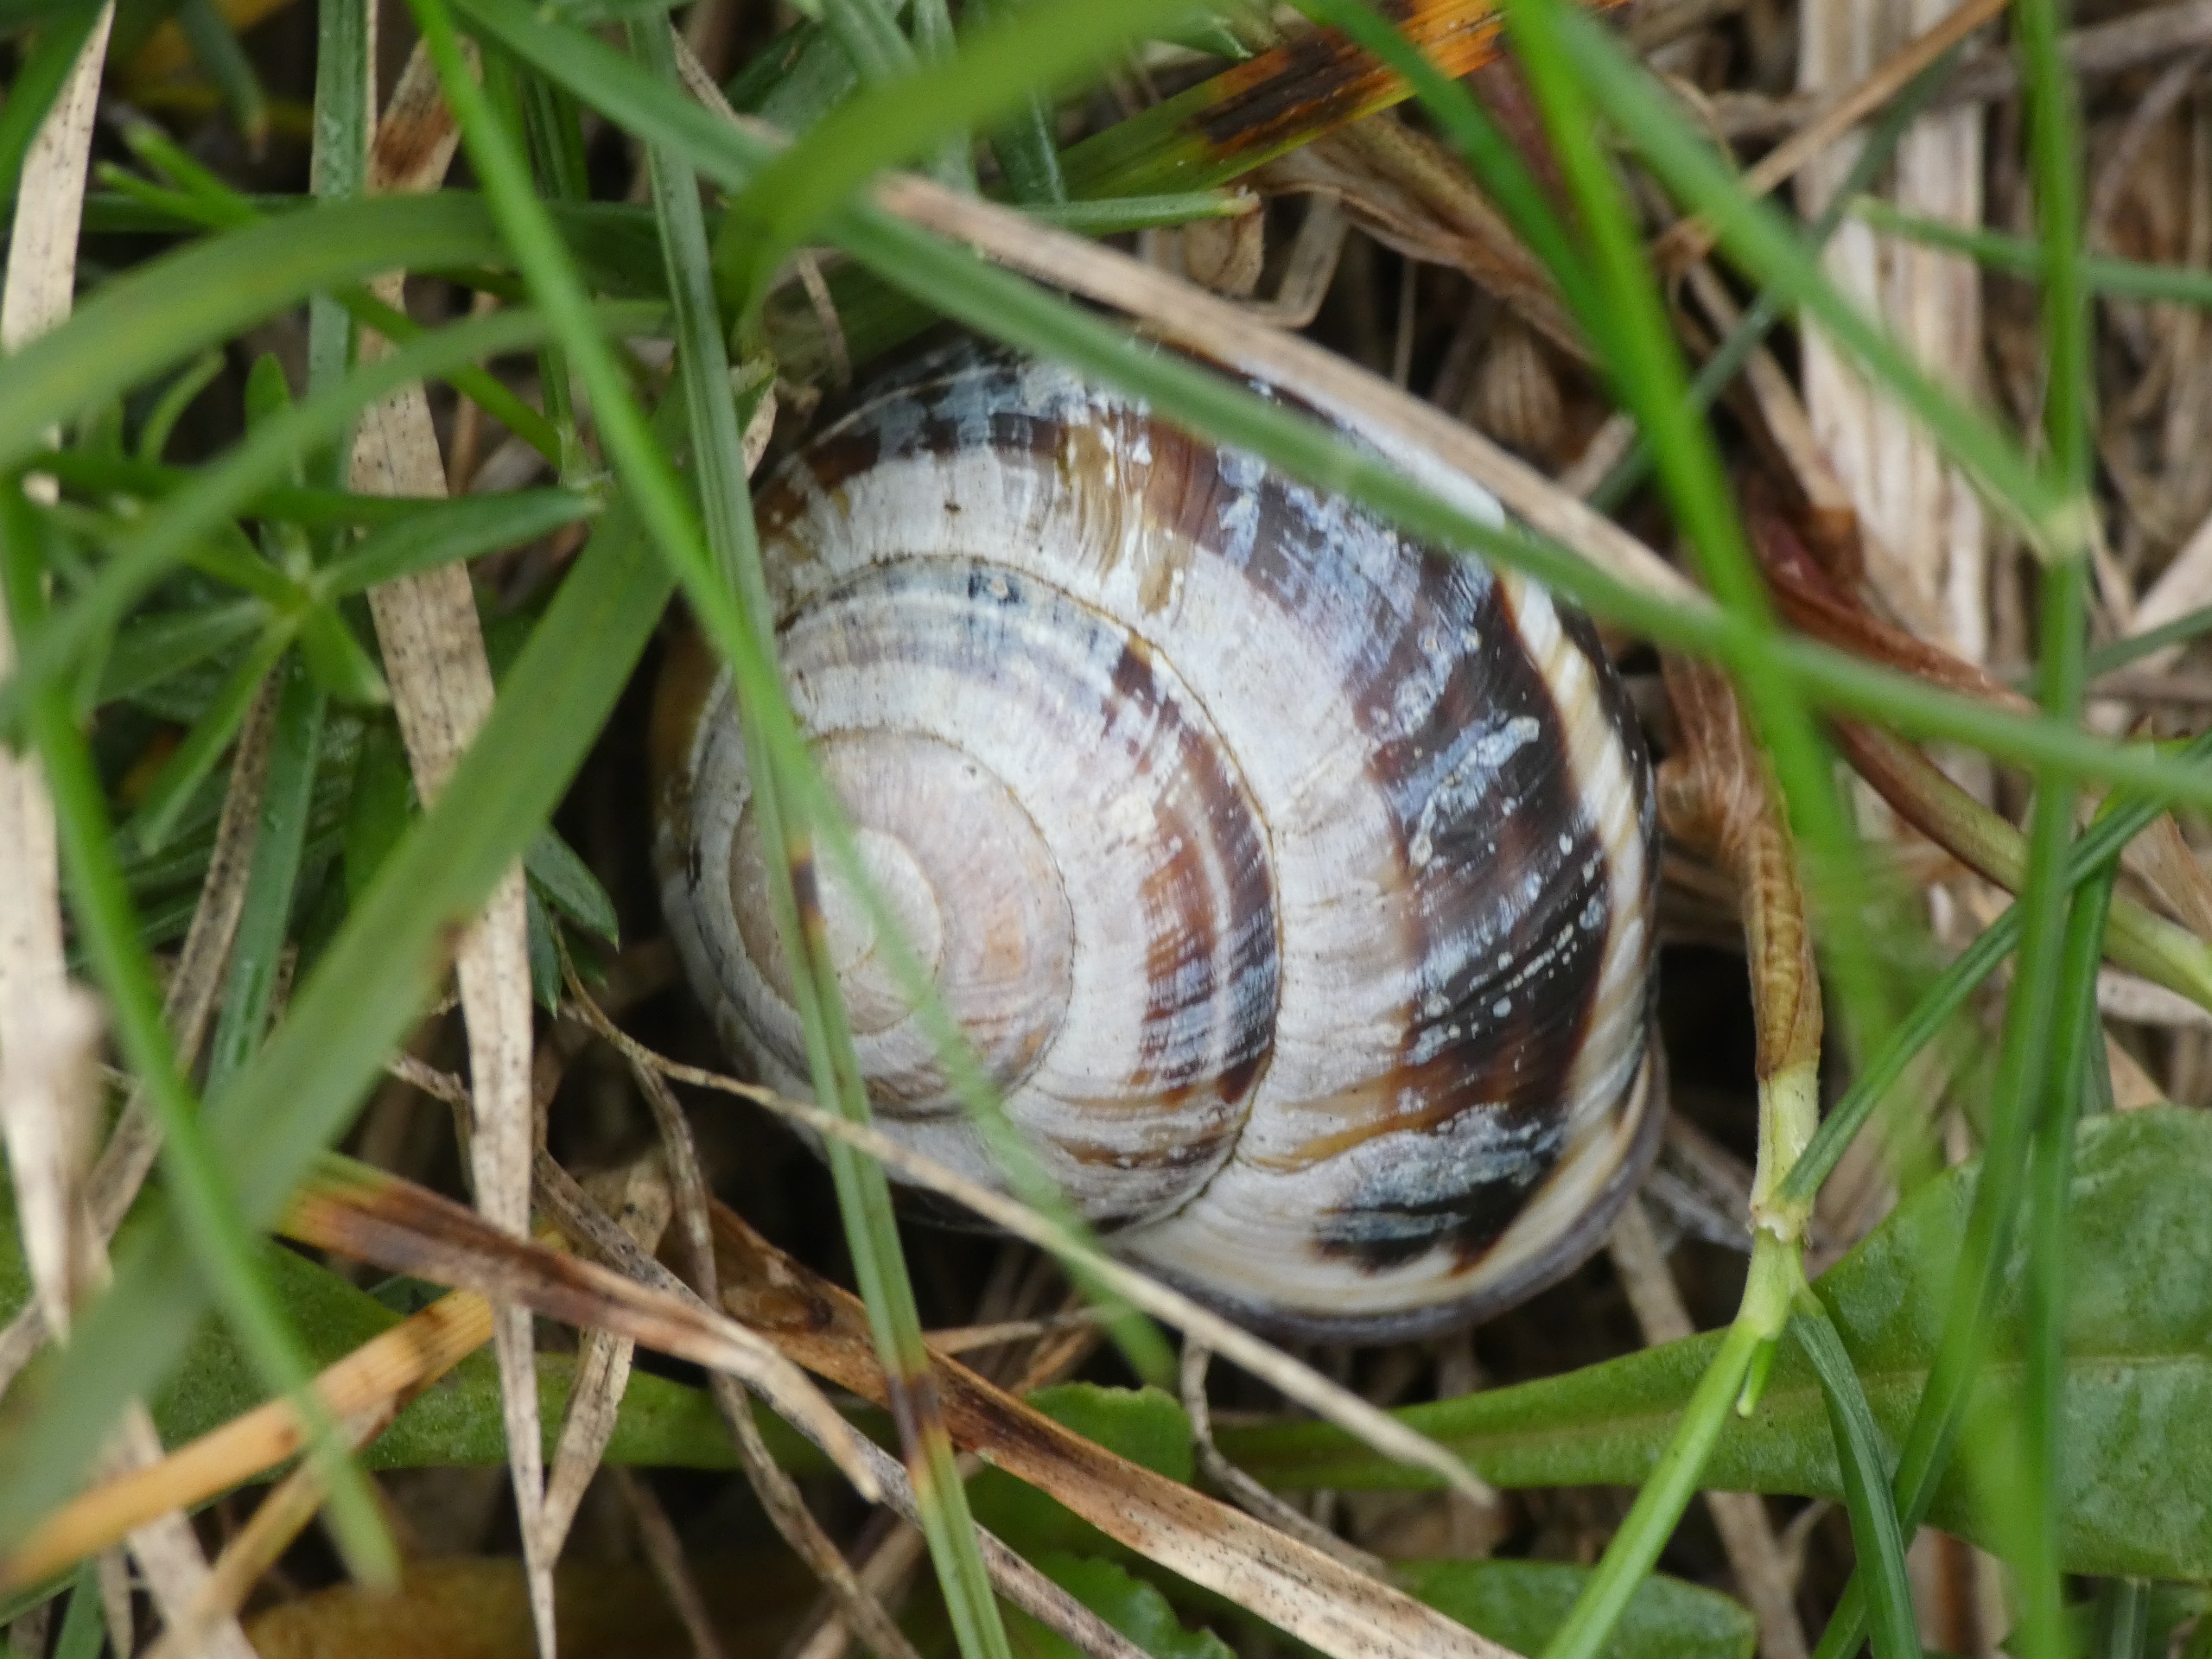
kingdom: Animalia
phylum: Mollusca
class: Gastropoda
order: Stylommatophora
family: Helicidae
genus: Cepaea
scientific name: Cepaea nemoralis
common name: Lundsnegl
